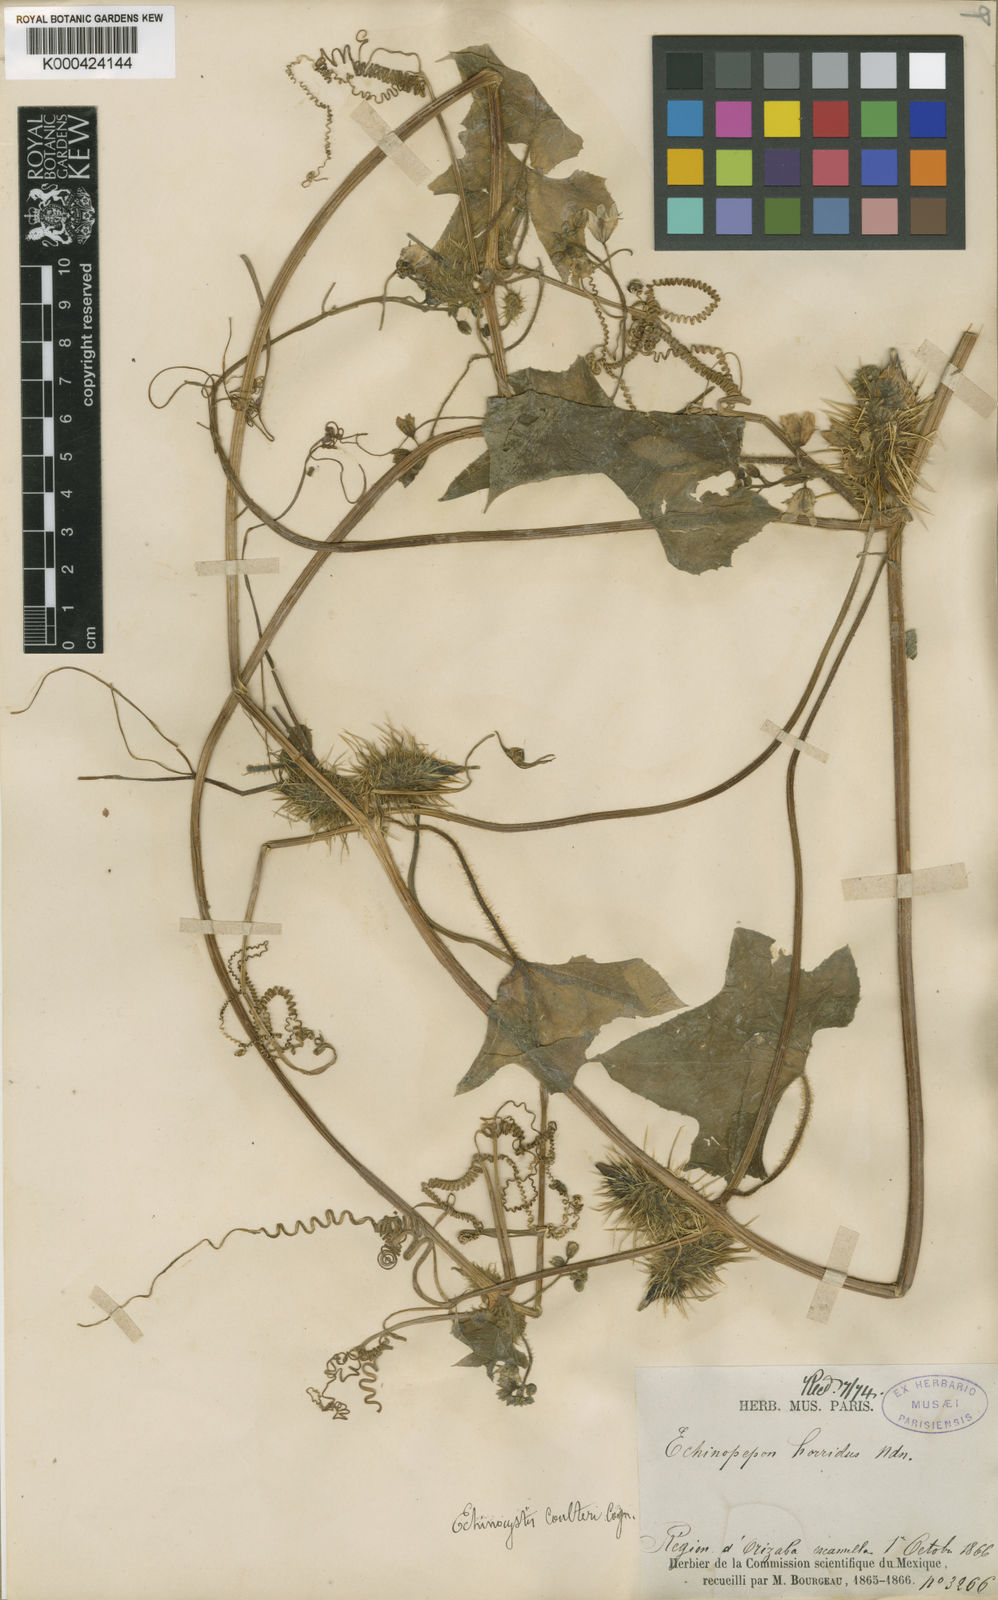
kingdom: Plantae
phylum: Tracheophyta
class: Magnoliopsida
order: Cucurbitales
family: Cucurbitaceae
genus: Echinopepon
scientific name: Echinopepon racemosus
